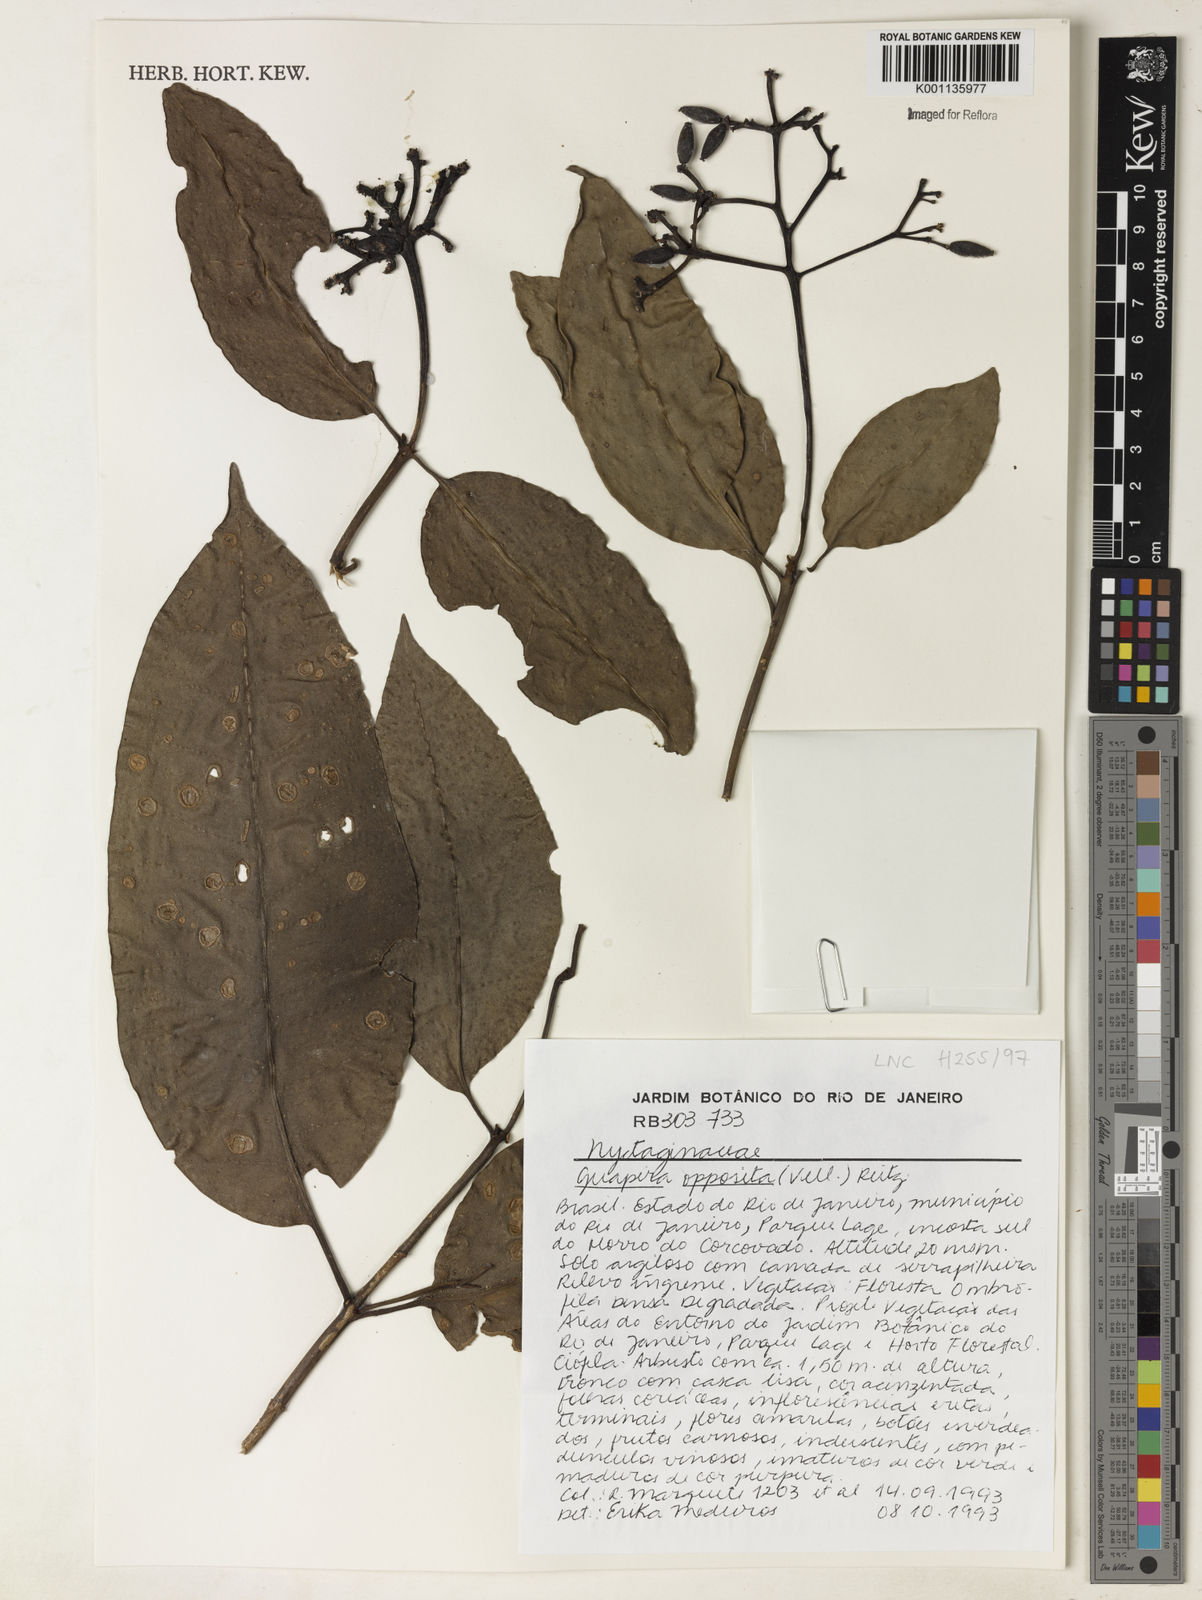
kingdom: Plantae
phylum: Tracheophyta
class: Magnoliopsida
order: Caryophyllales
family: Nyctaginaceae
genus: Guapira
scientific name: Guapira opposita
